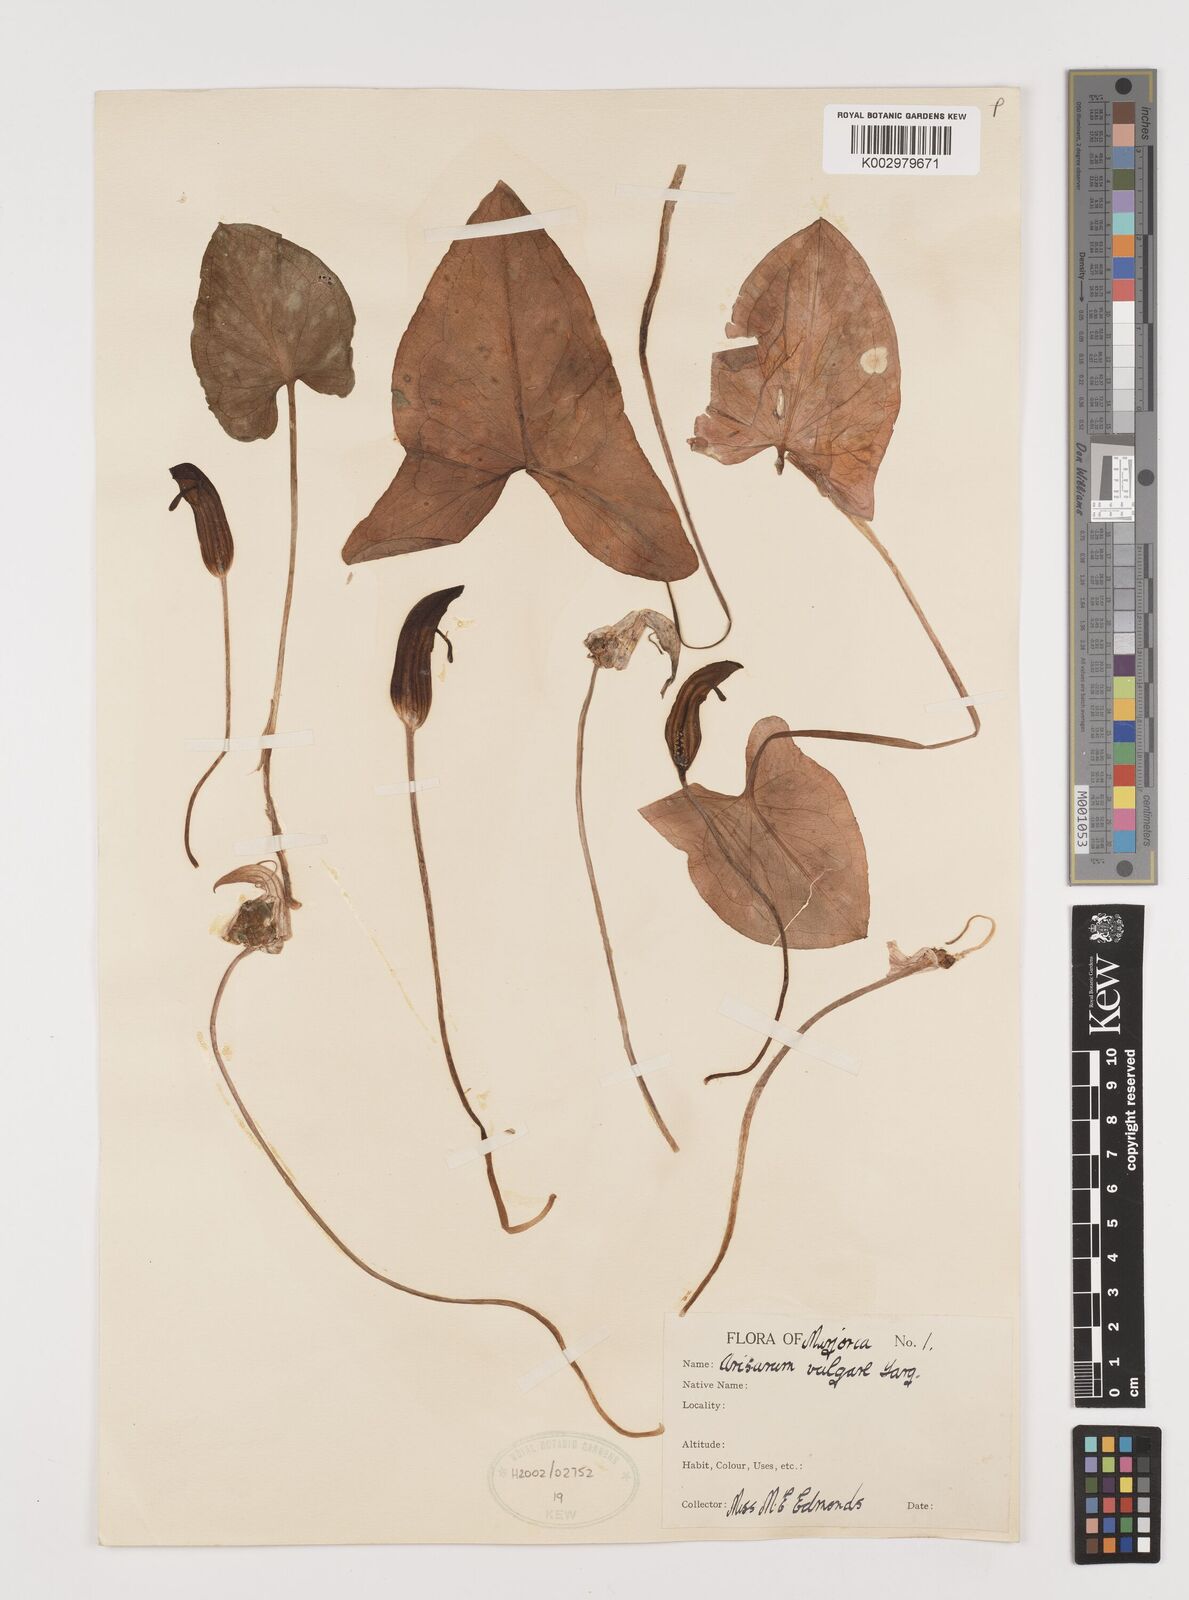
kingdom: Plantae
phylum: Tracheophyta
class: Liliopsida
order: Alismatales
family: Araceae
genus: Arisarum
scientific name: Arisarum vulgare
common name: Common arisarum
